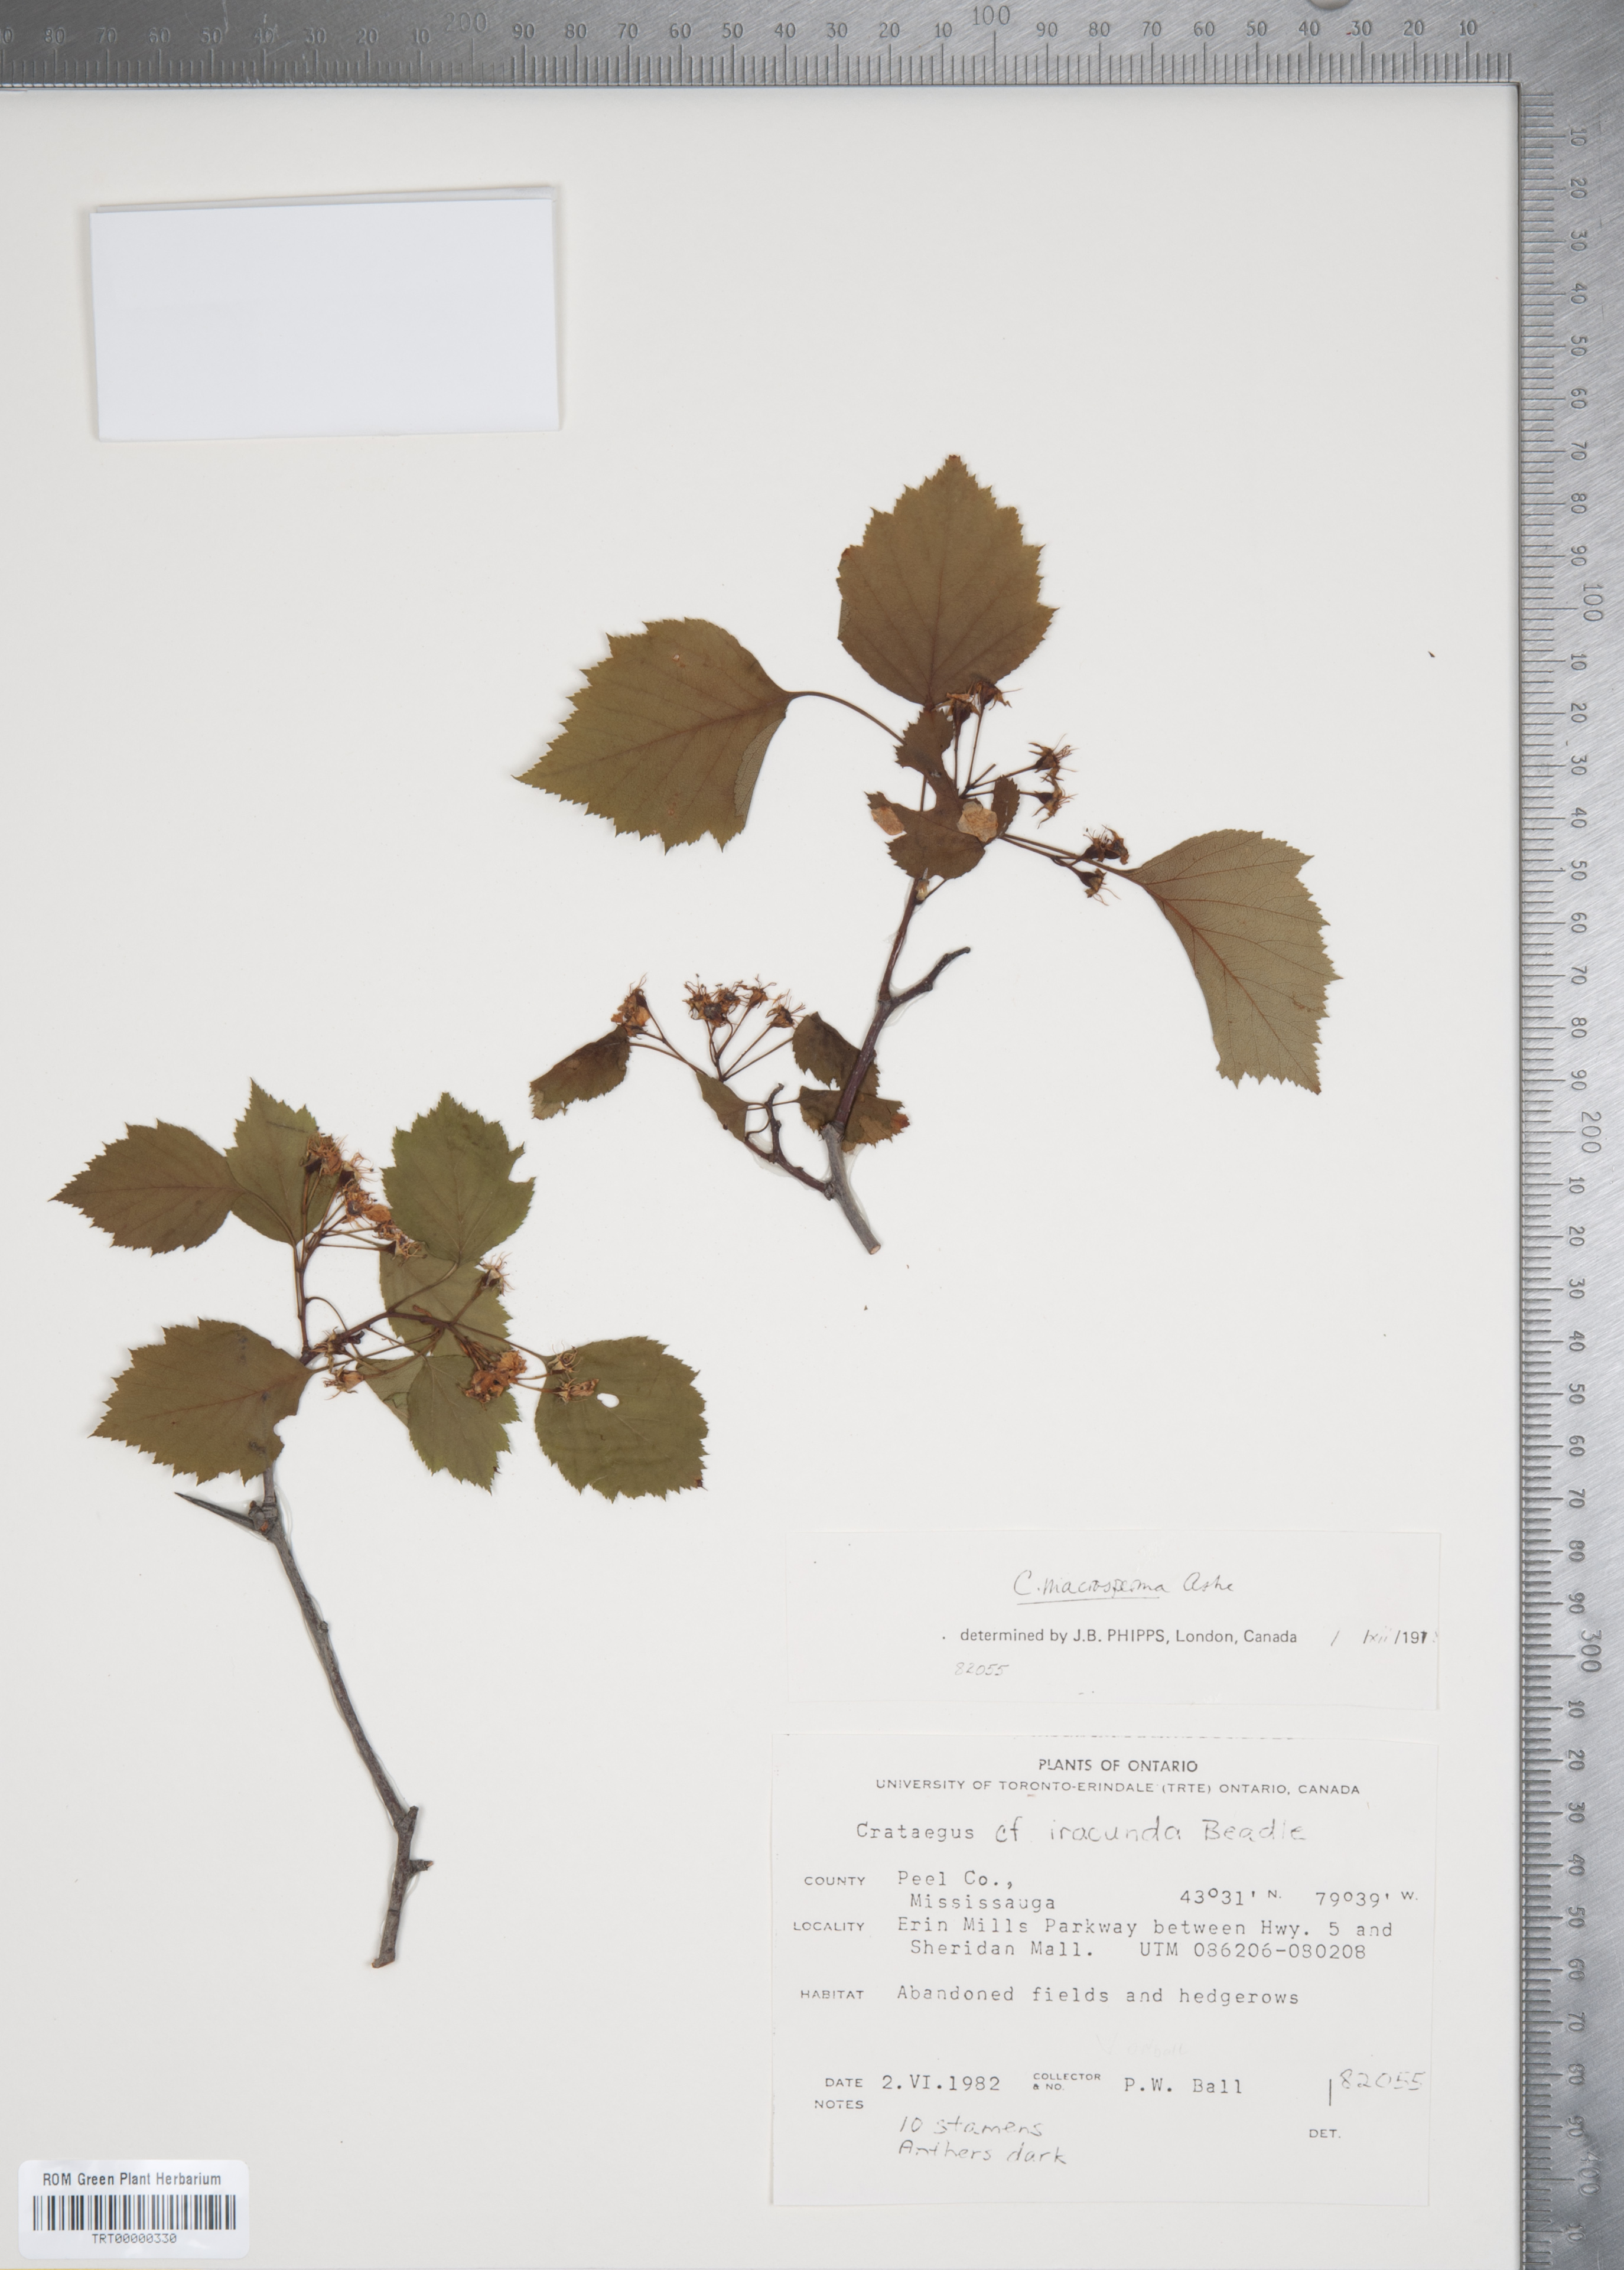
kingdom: Plantae
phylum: Tracheophyta
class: Magnoliopsida
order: Rosales
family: Rosaceae
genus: Crataegus
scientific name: Crataegus macrosperma
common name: Variable hawthorn
